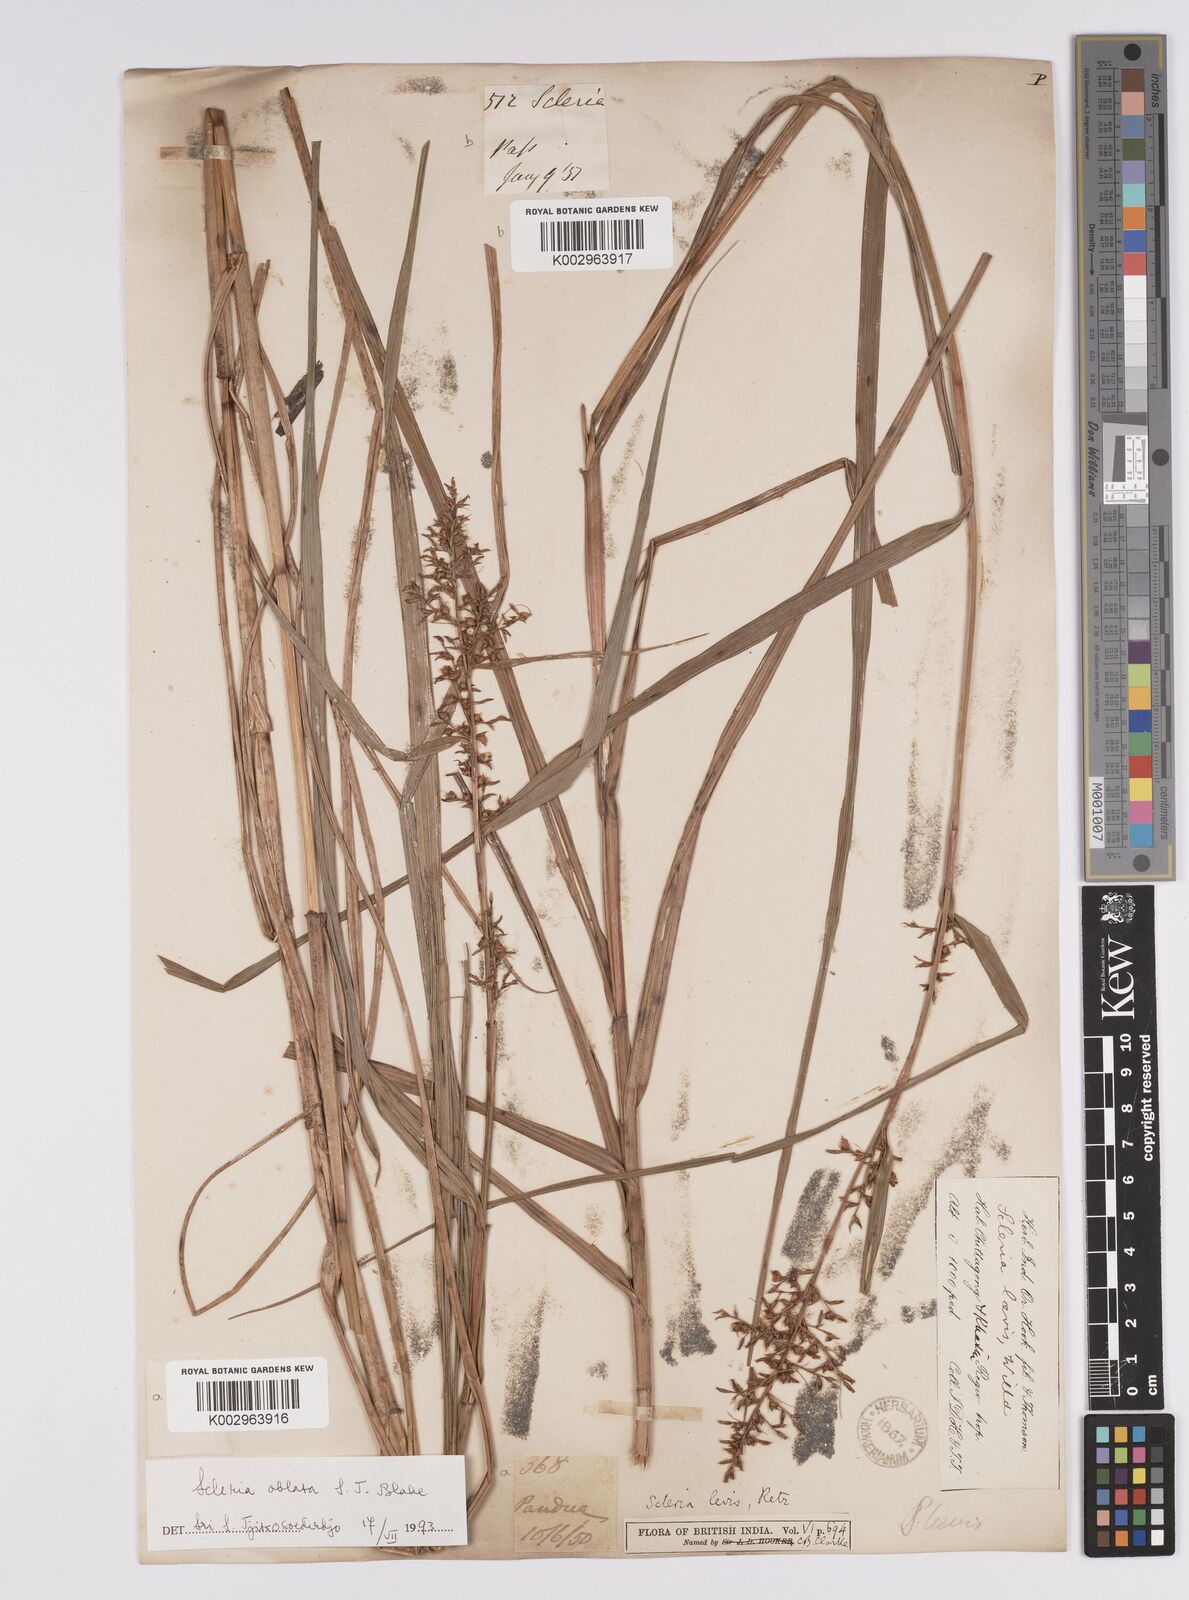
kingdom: Plantae
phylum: Tracheophyta
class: Liliopsida
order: Poales
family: Cyperaceae
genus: Scleria
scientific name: Scleria levis
